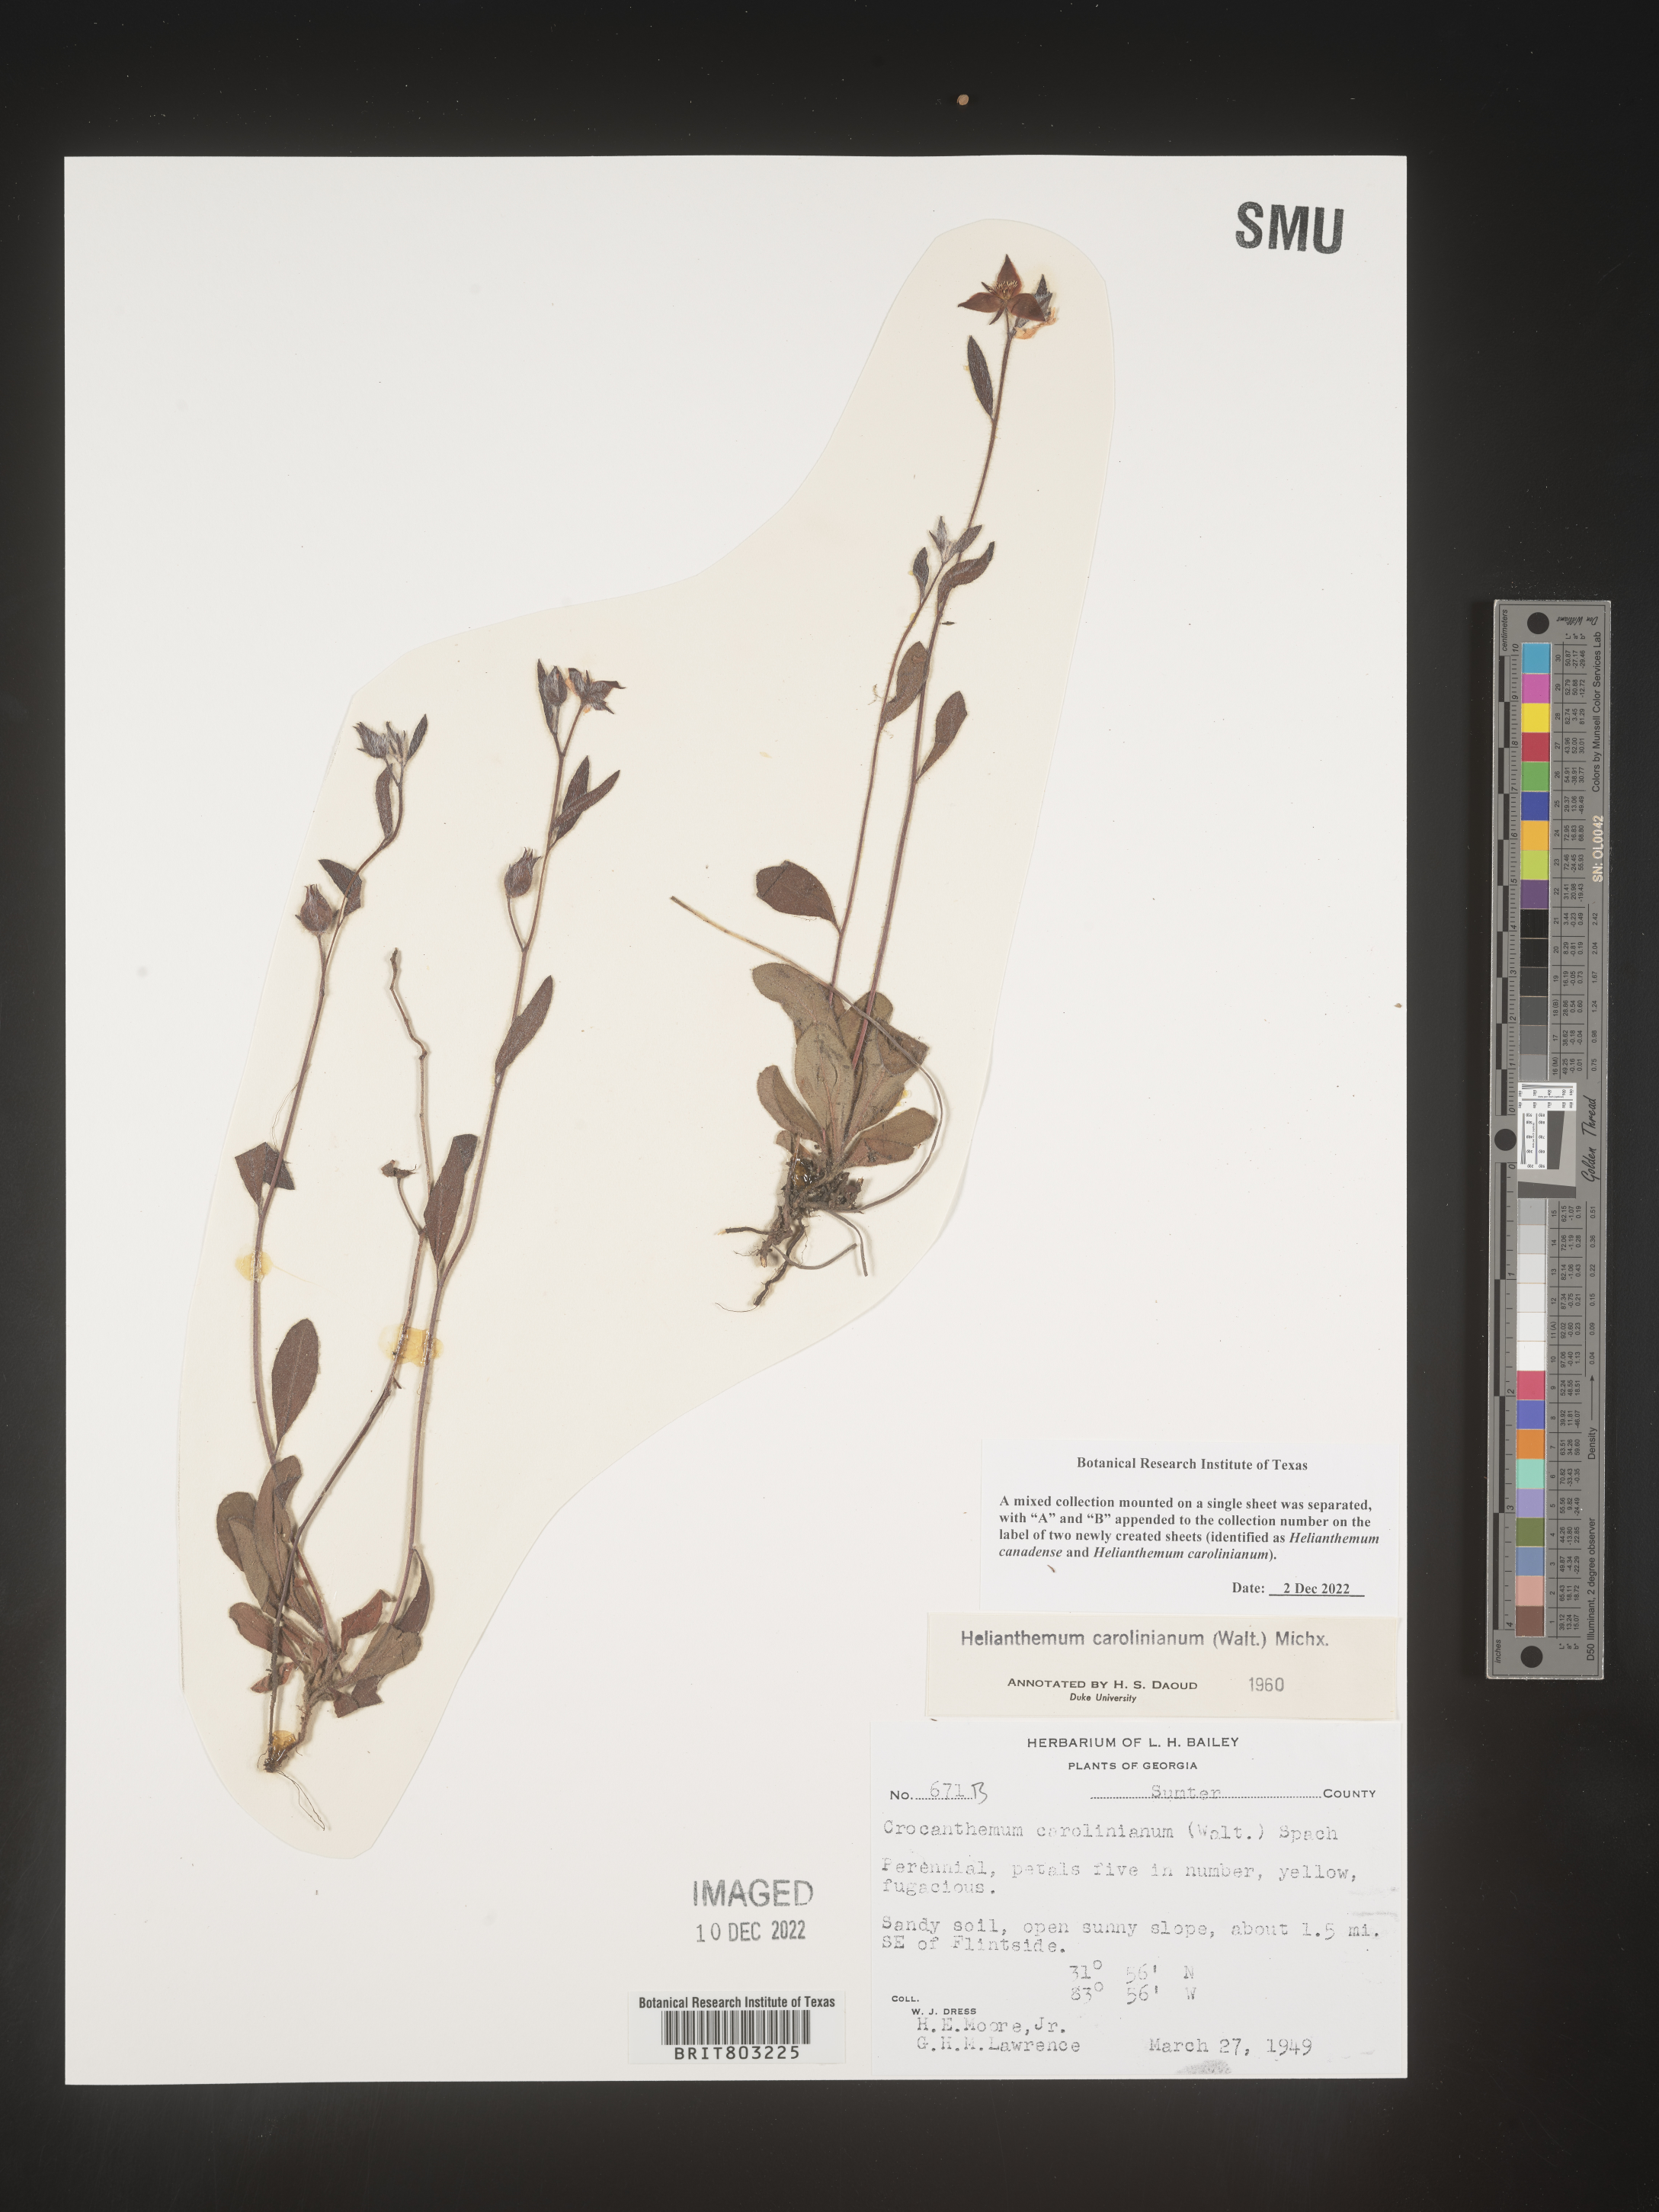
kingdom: Plantae
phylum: Tracheophyta
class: Magnoliopsida
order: Malvales
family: Cistaceae
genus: Crocanthemum
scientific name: Crocanthemum carolinianum
